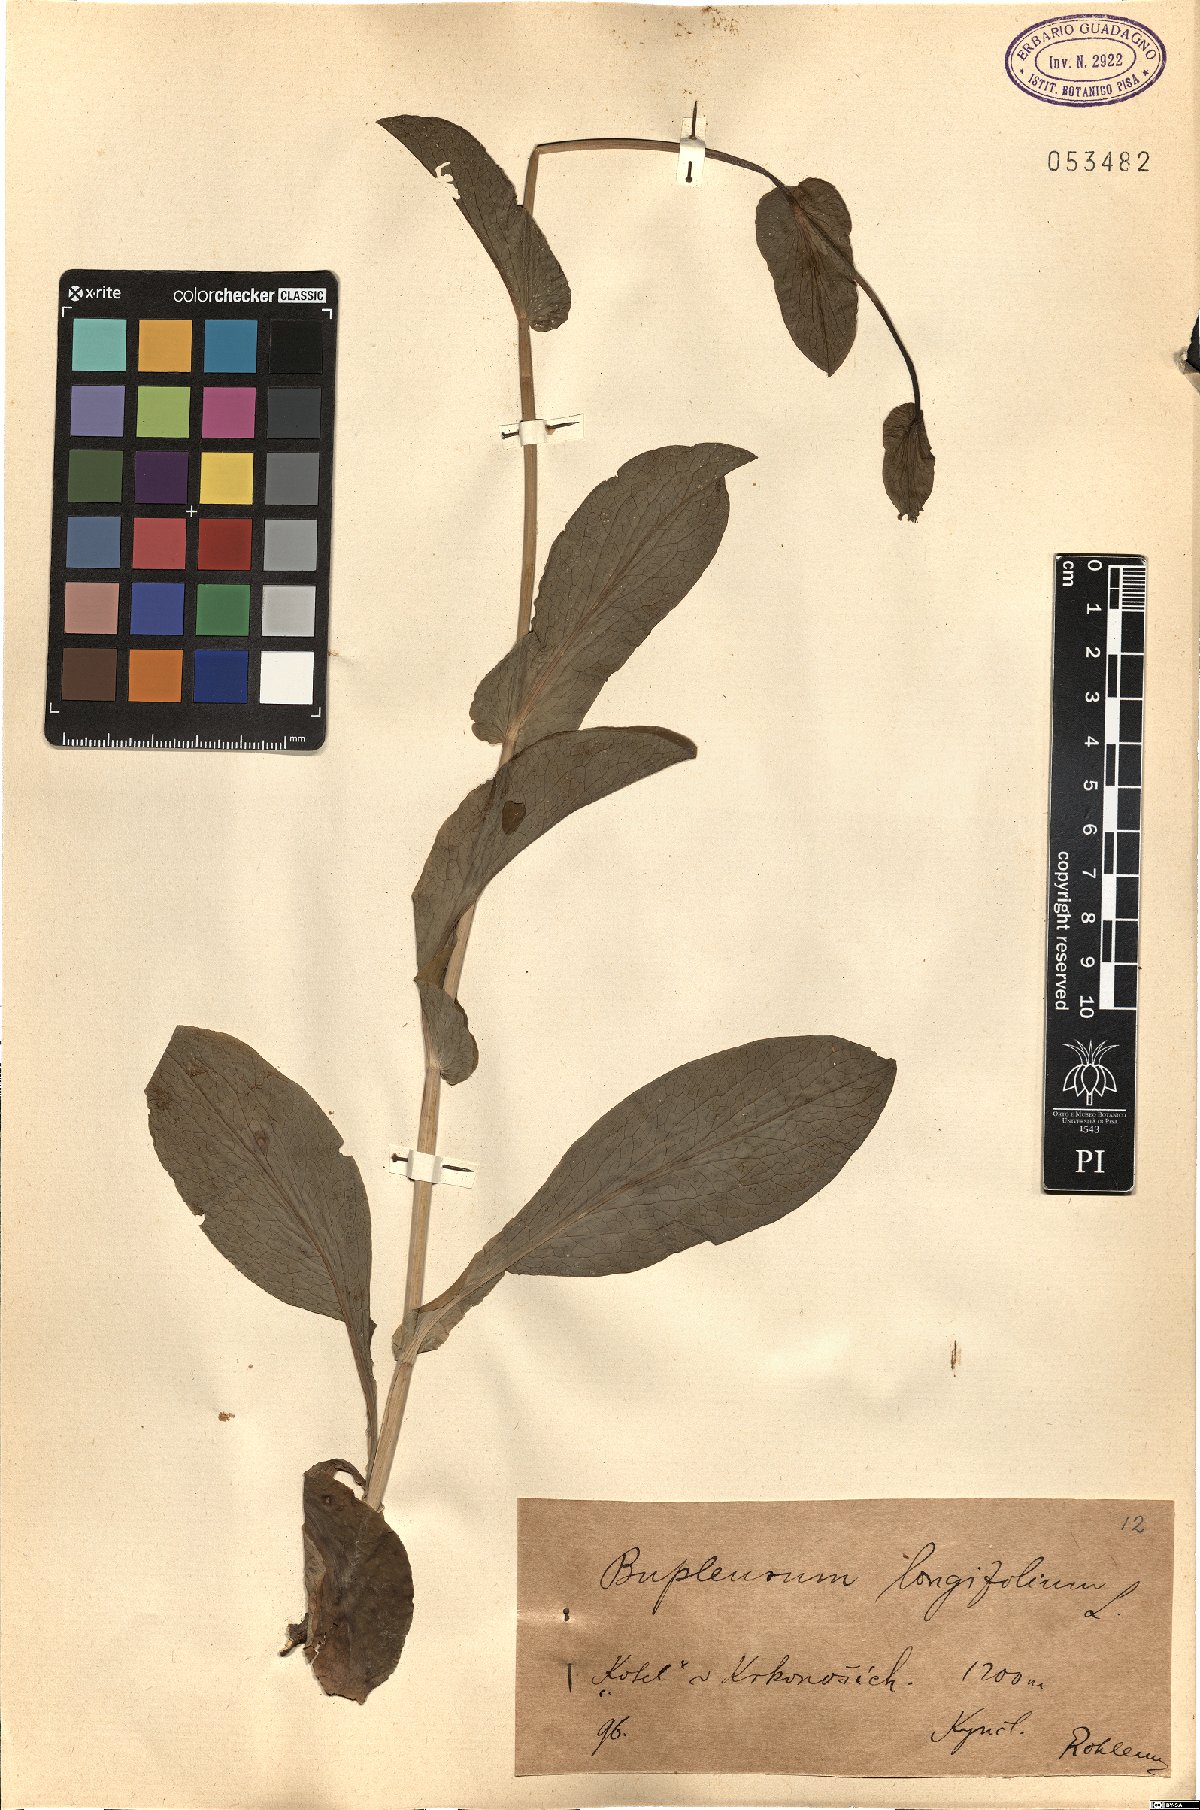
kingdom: Plantae
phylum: Tracheophyta
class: Magnoliopsida
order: Apiales
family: Apiaceae
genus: Bupleurum
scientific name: Bupleurum longifolium
